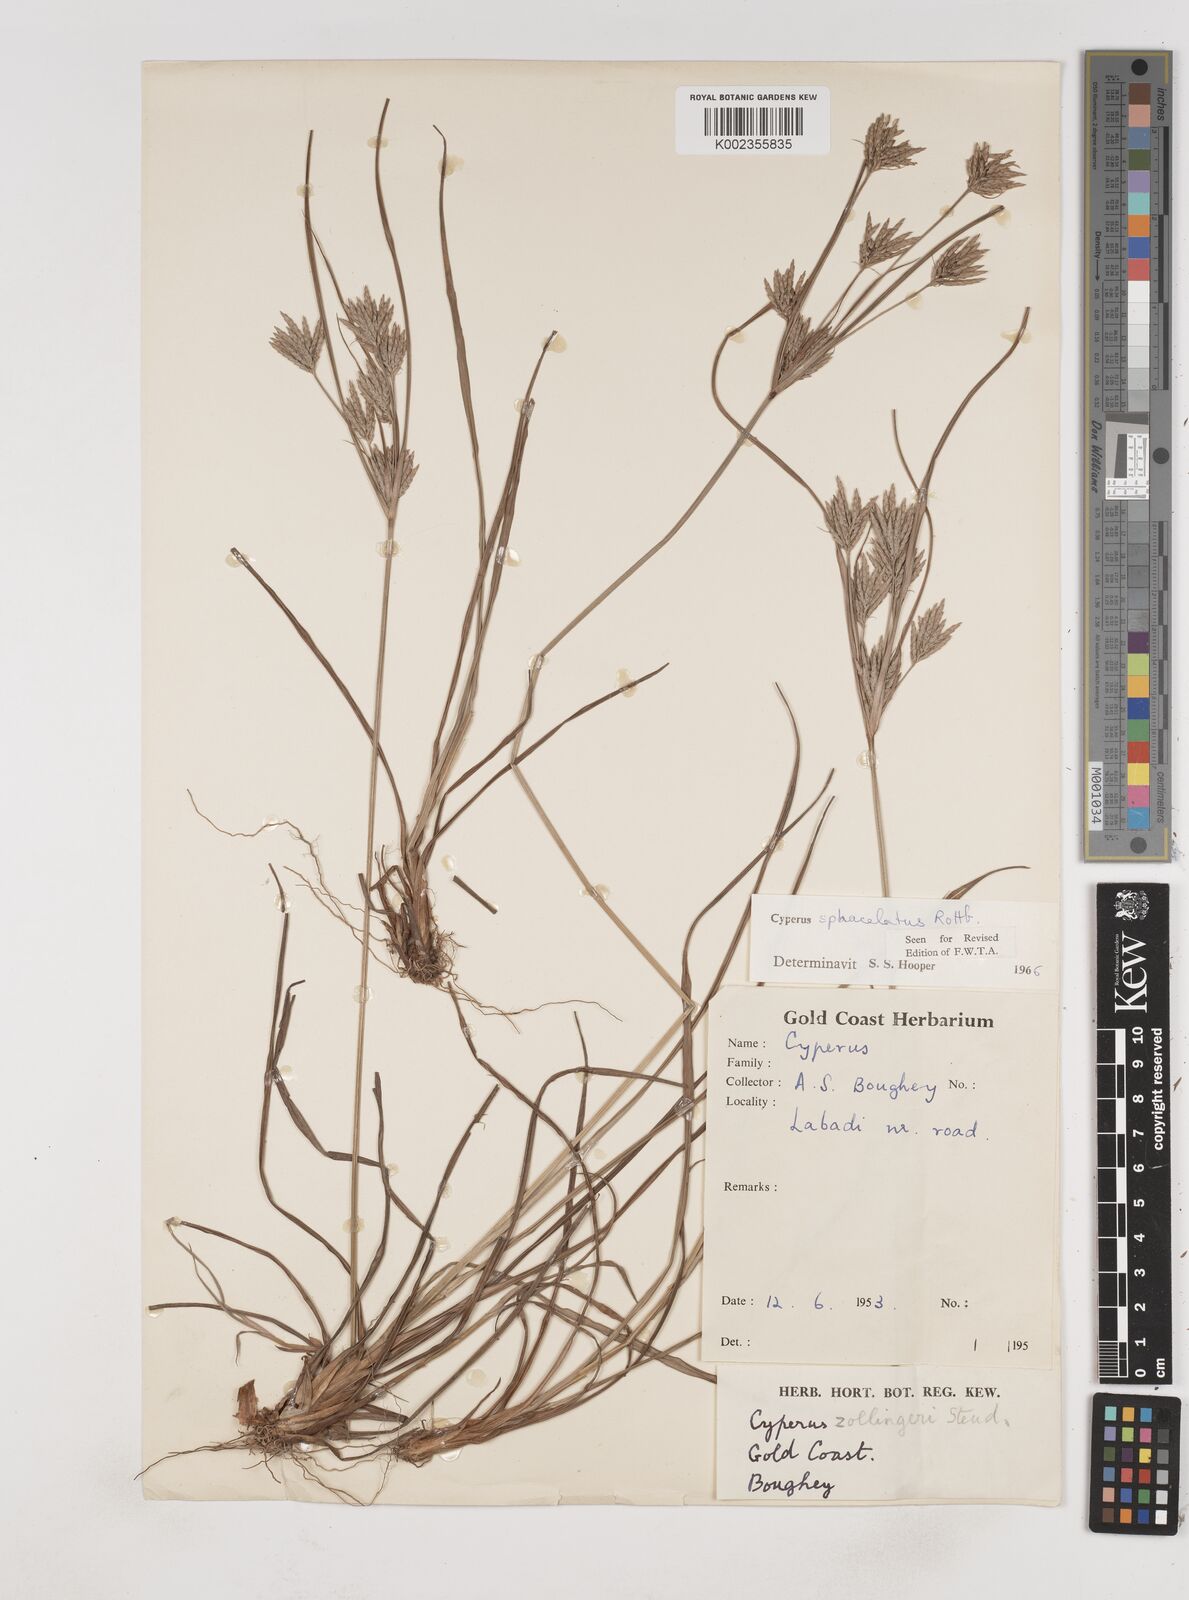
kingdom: Plantae
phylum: Tracheophyta
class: Liliopsida
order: Poales
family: Cyperaceae
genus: Cyperus
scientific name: Cyperus sphacelatus
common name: Roadside flatsedge
